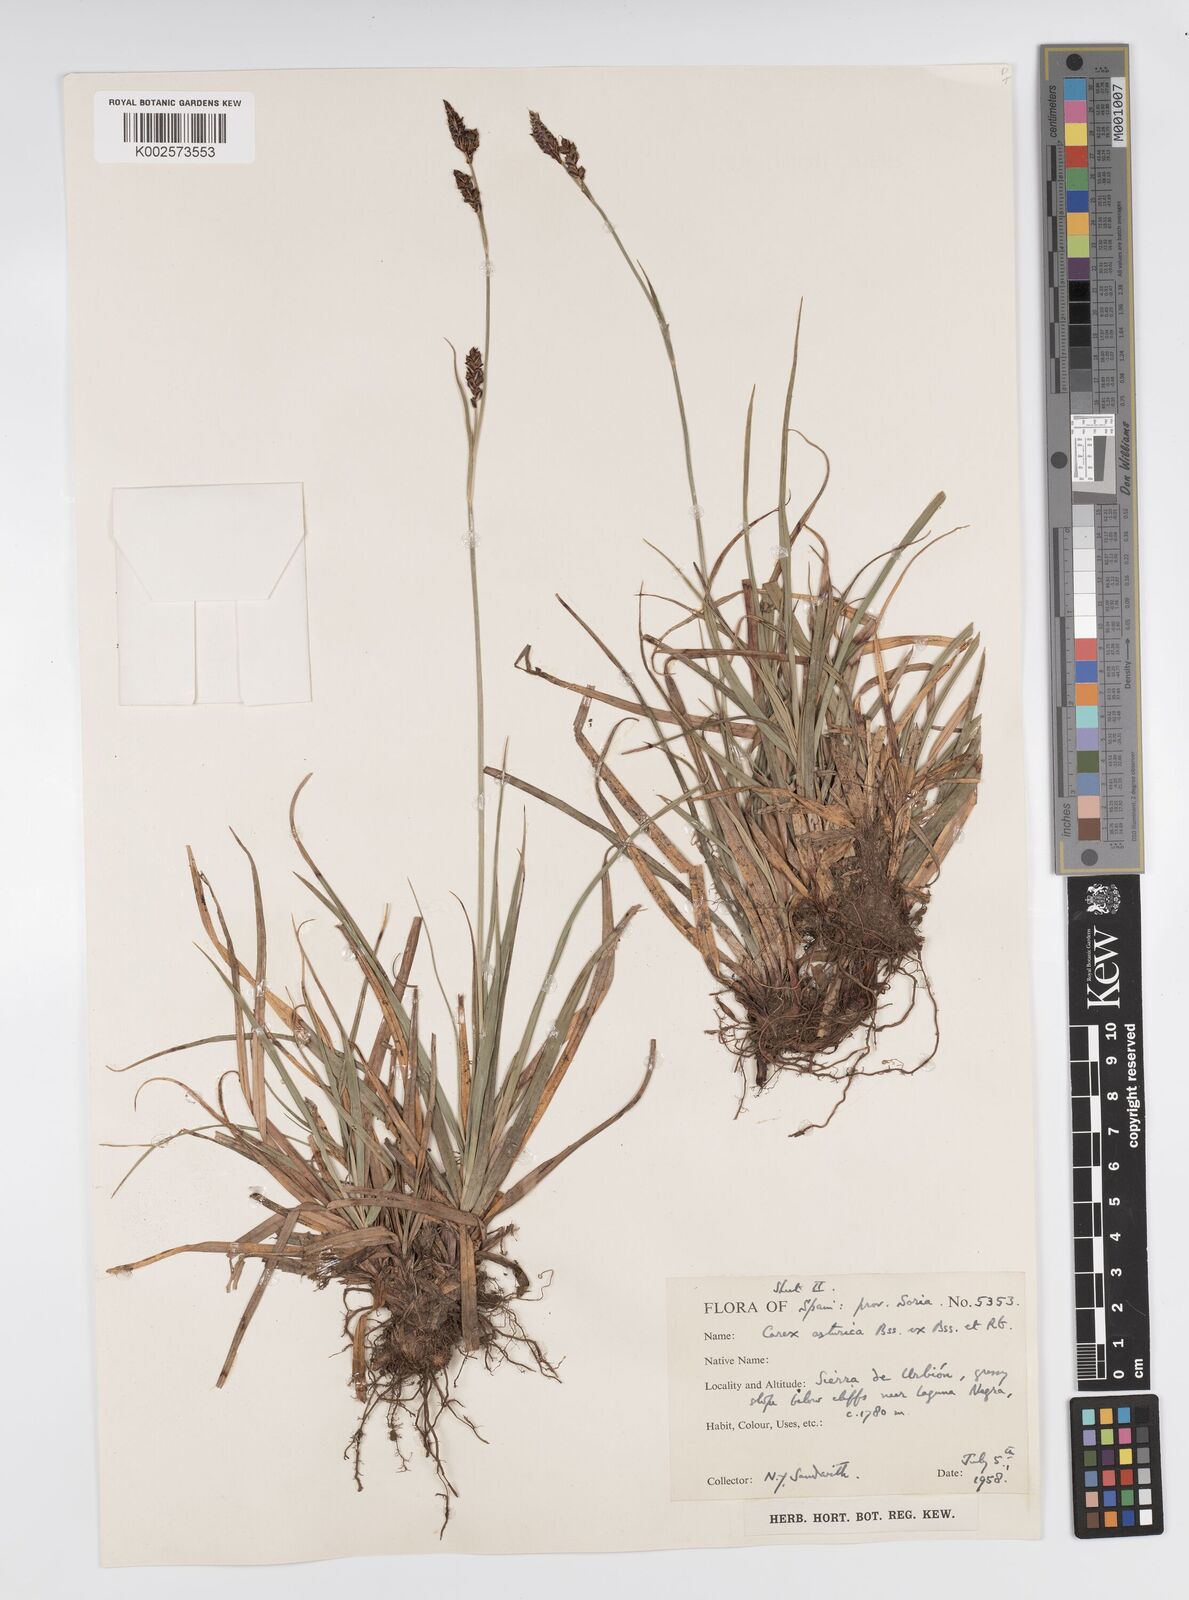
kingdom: Plantae
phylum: Tracheophyta
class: Liliopsida
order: Poales
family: Cyperaceae
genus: Carex
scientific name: Carex asturica
